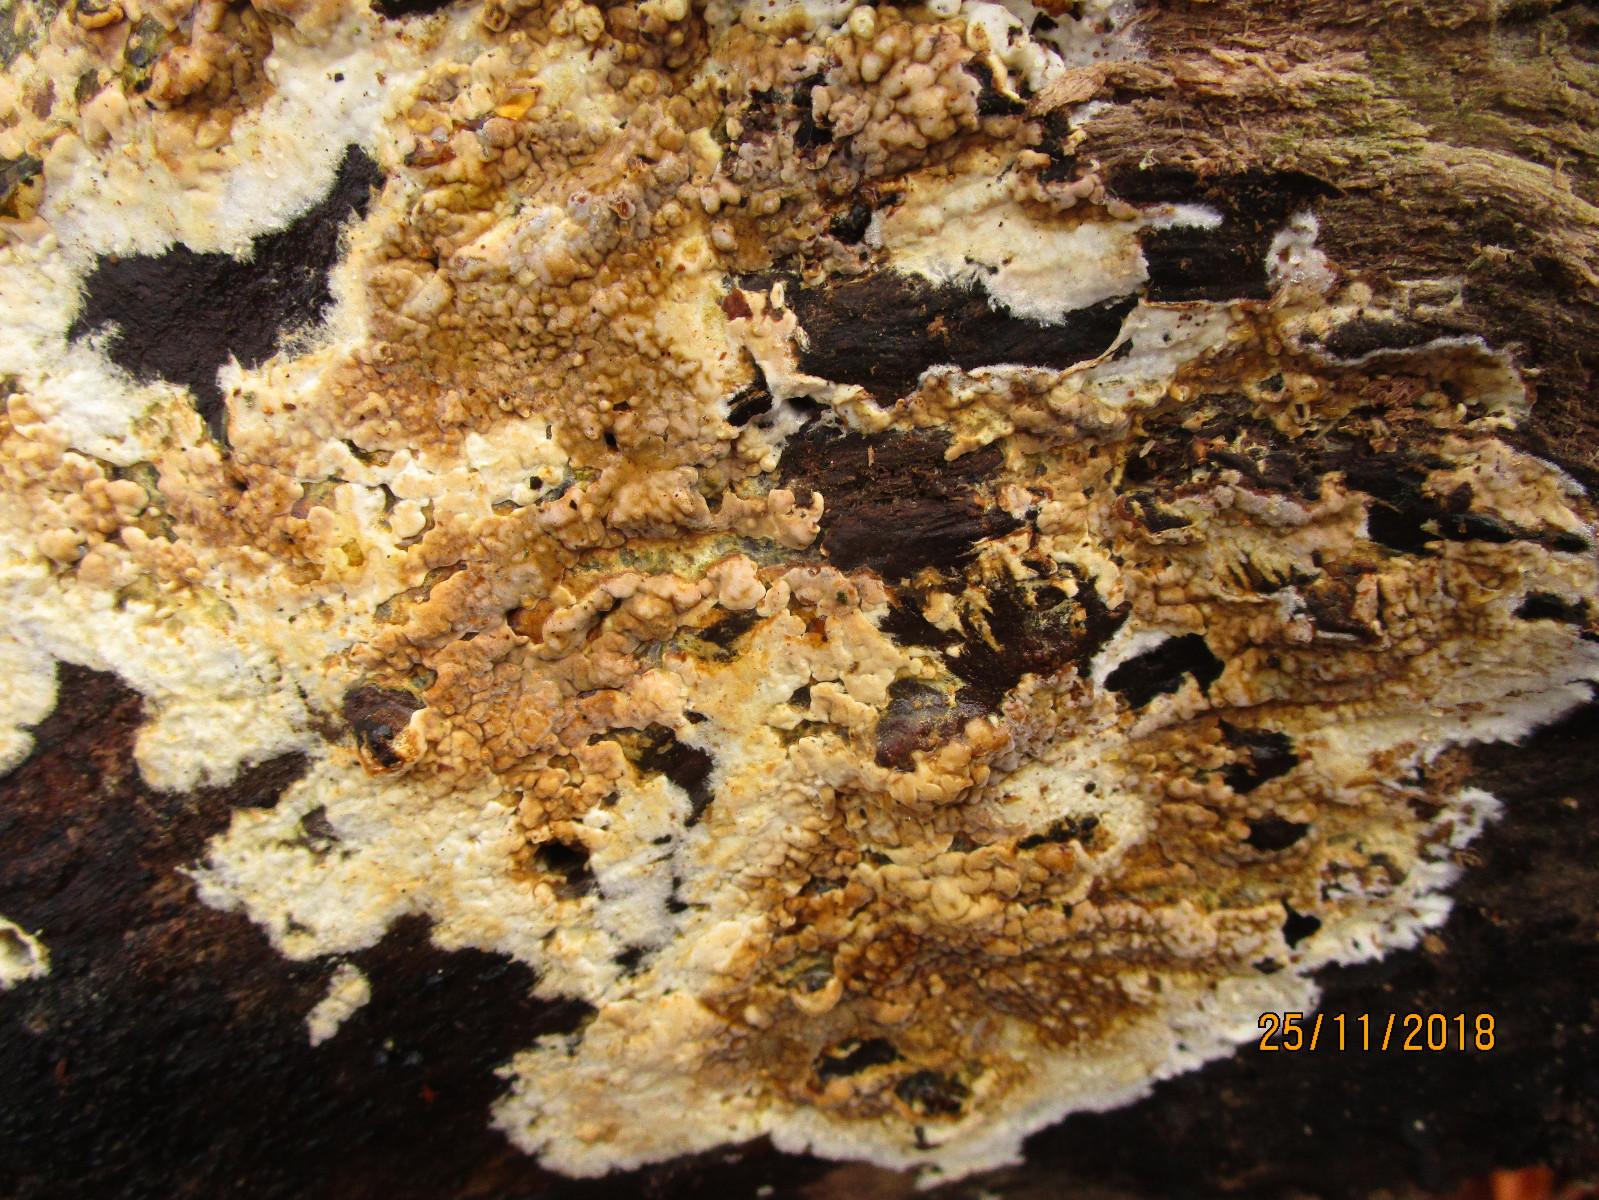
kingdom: Fungi
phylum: Basidiomycota
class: Agaricomycetes
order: Boletales
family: Coniophoraceae
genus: Coniophora
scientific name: Coniophora puteana
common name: gul tømmersvamp
